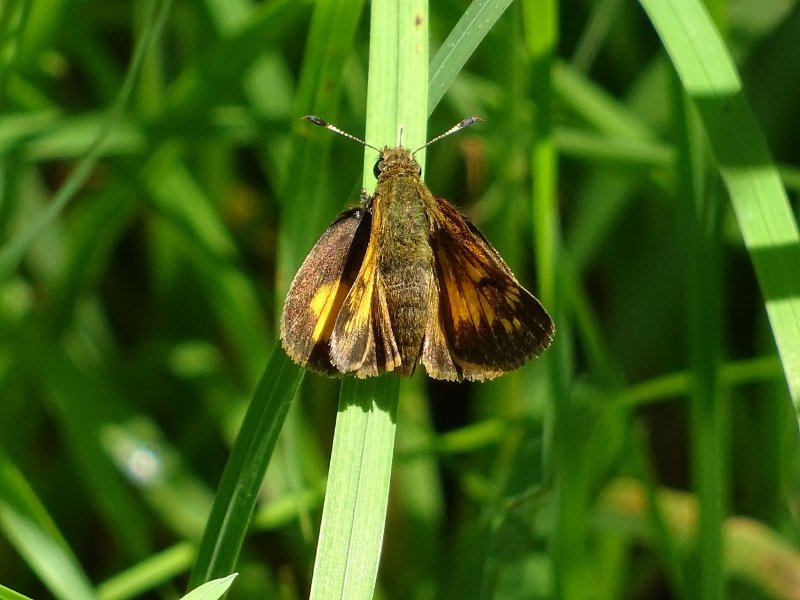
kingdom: Animalia
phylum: Arthropoda
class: Insecta
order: Lepidoptera
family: Hesperiidae
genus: Lon
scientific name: Lon hobomok
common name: Hobomok Skipper
